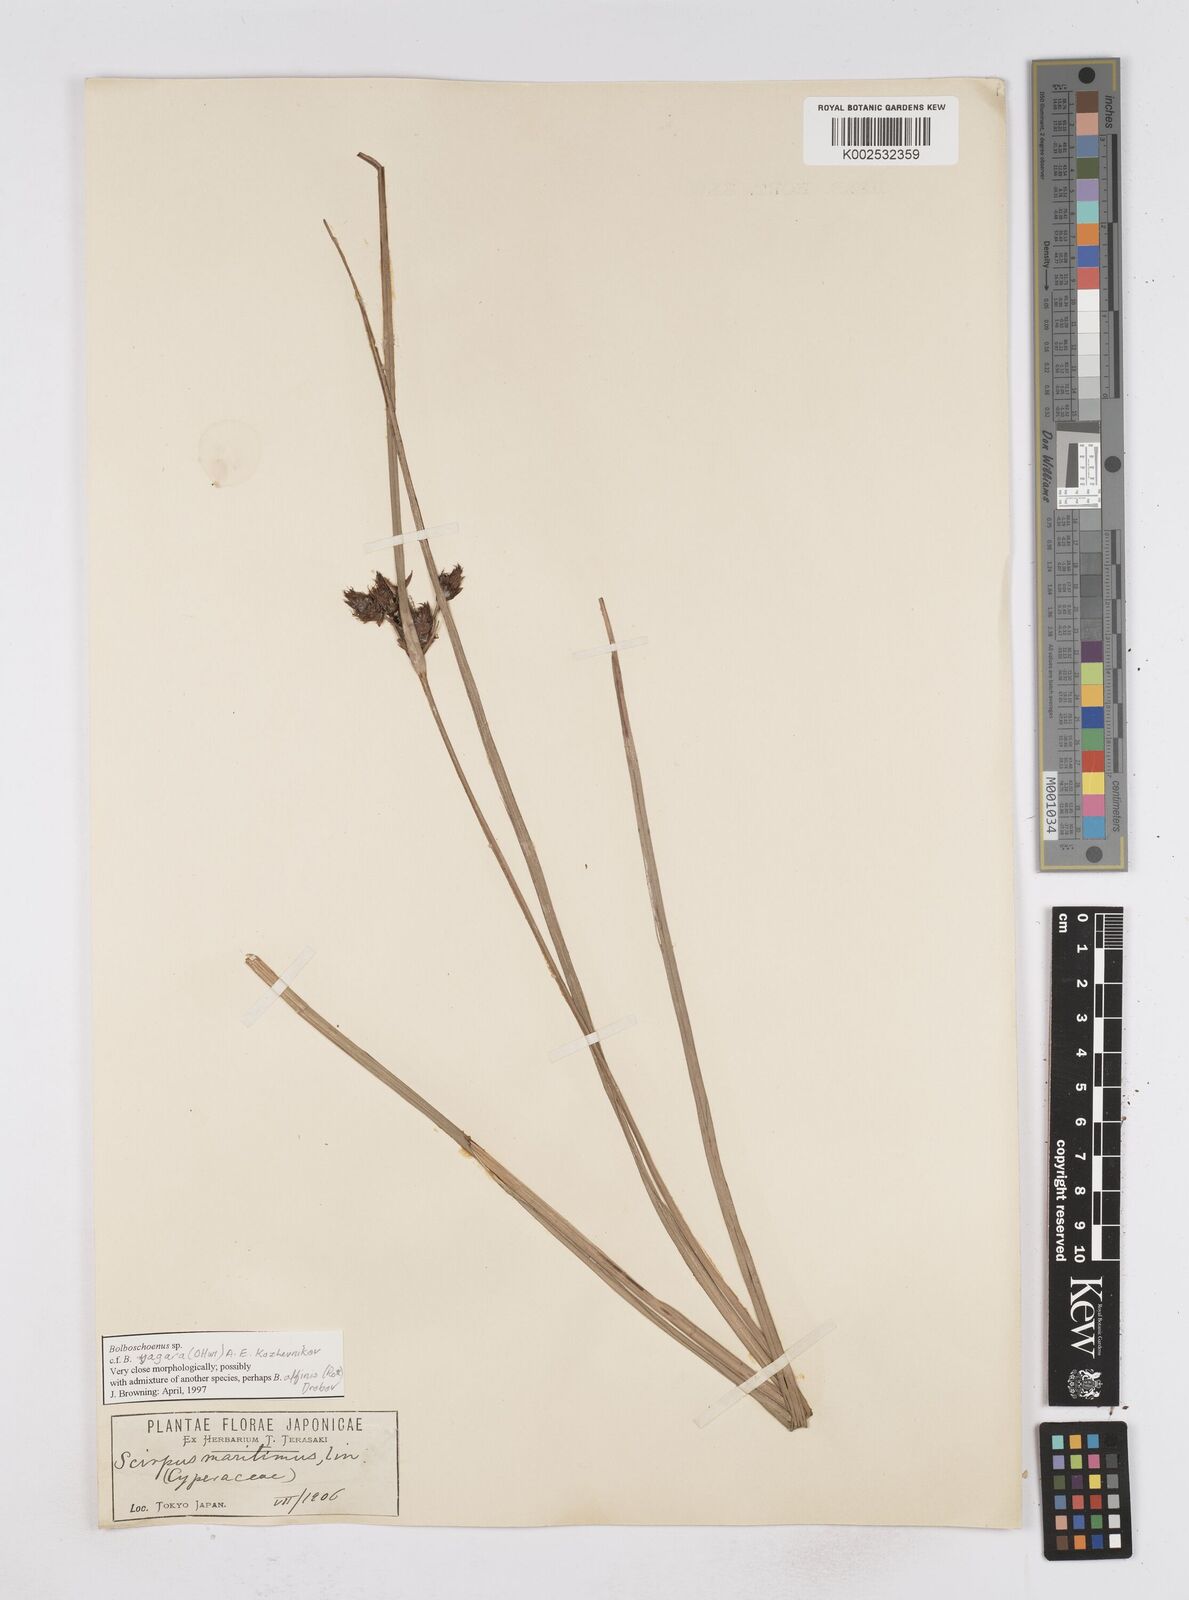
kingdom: Plantae
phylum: Tracheophyta
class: Liliopsida
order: Poales
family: Cyperaceae
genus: Bolboschoenus
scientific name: Bolboschoenus maritimus
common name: Sea club-rush
